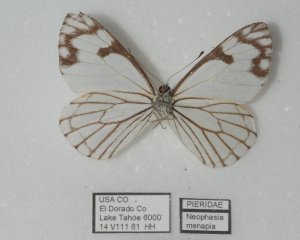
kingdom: Animalia
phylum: Arthropoda
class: Insecta
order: Lepidoptera
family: Pieridae
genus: Neophasia
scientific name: Neophasia menapia
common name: Pine White
